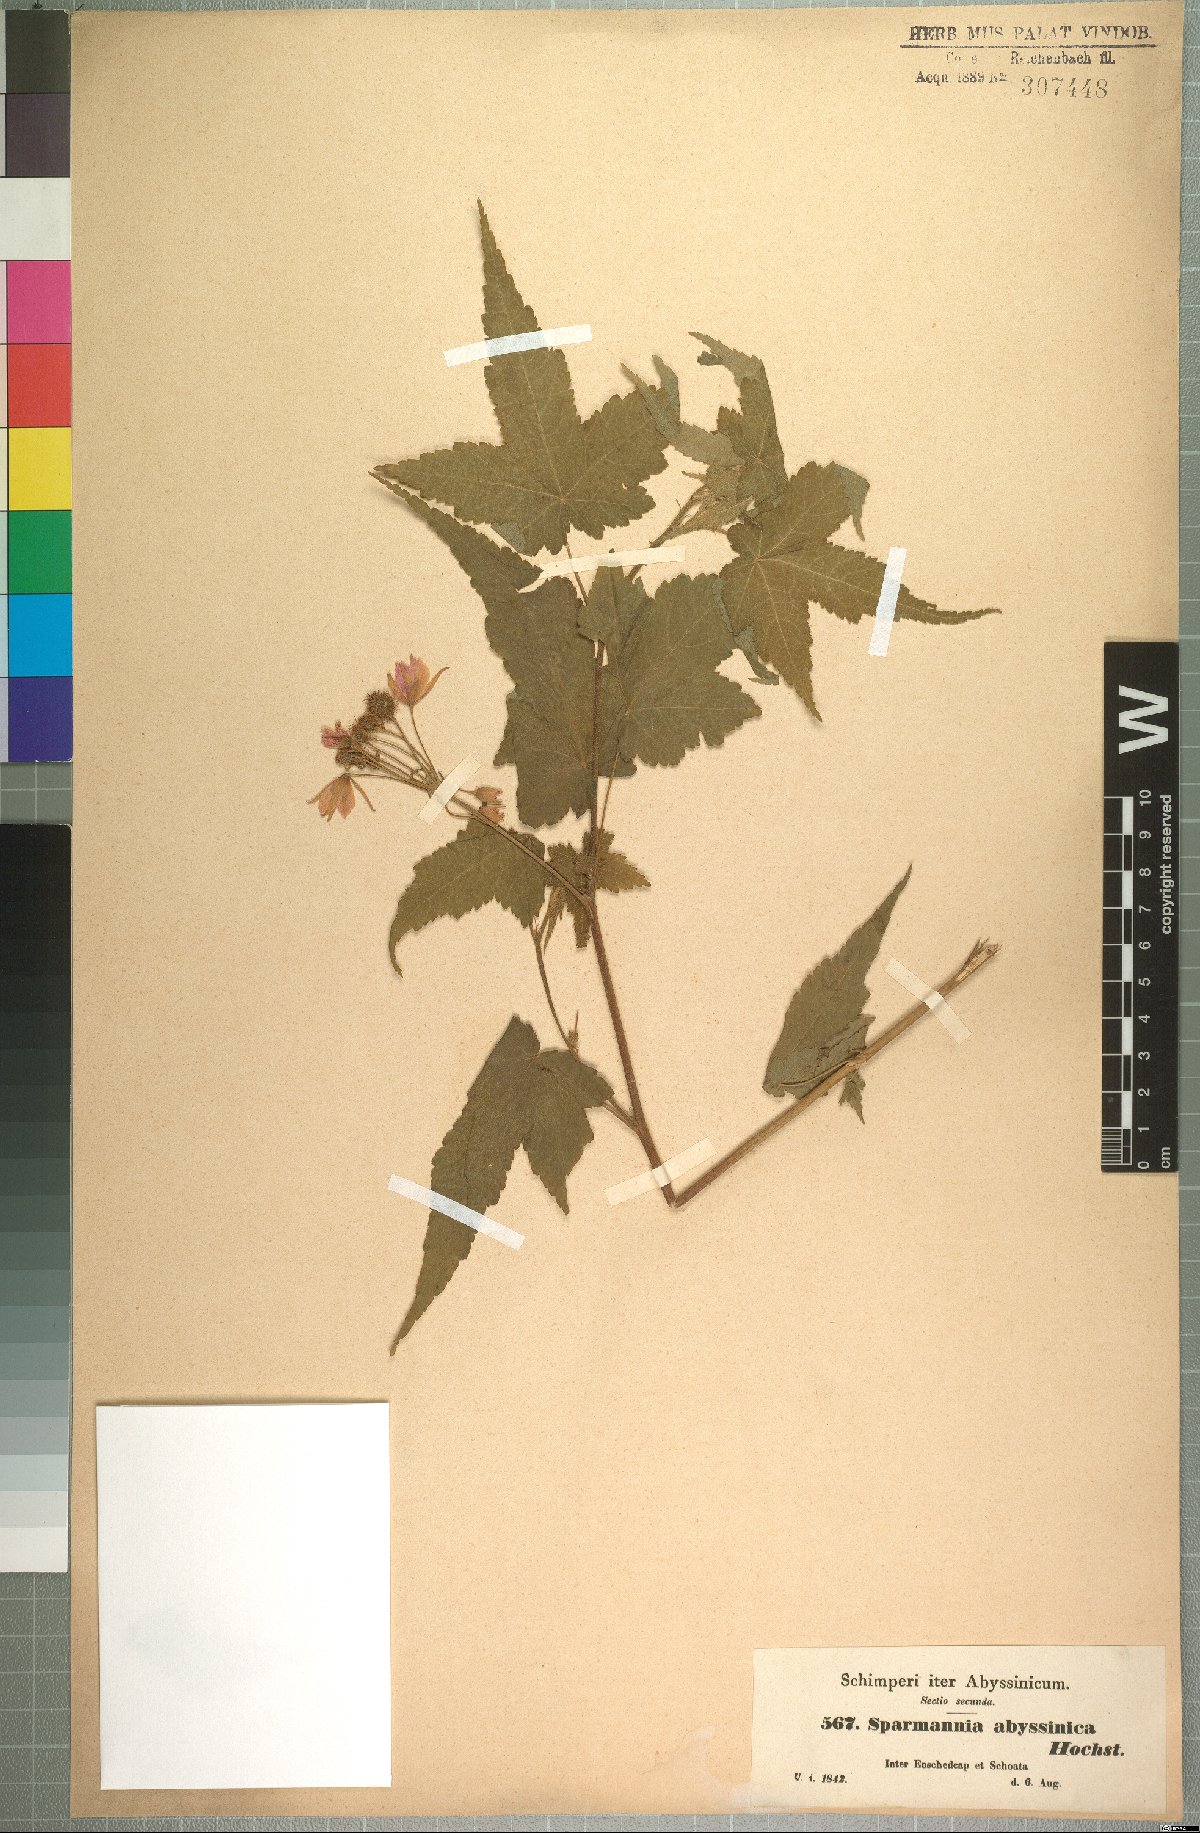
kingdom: Plantae
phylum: Tracheophyta
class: Magnoliopsida
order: Malvales
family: Malvaceae
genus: Sparrmannia
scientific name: Sparrmannia ricinocarpa
